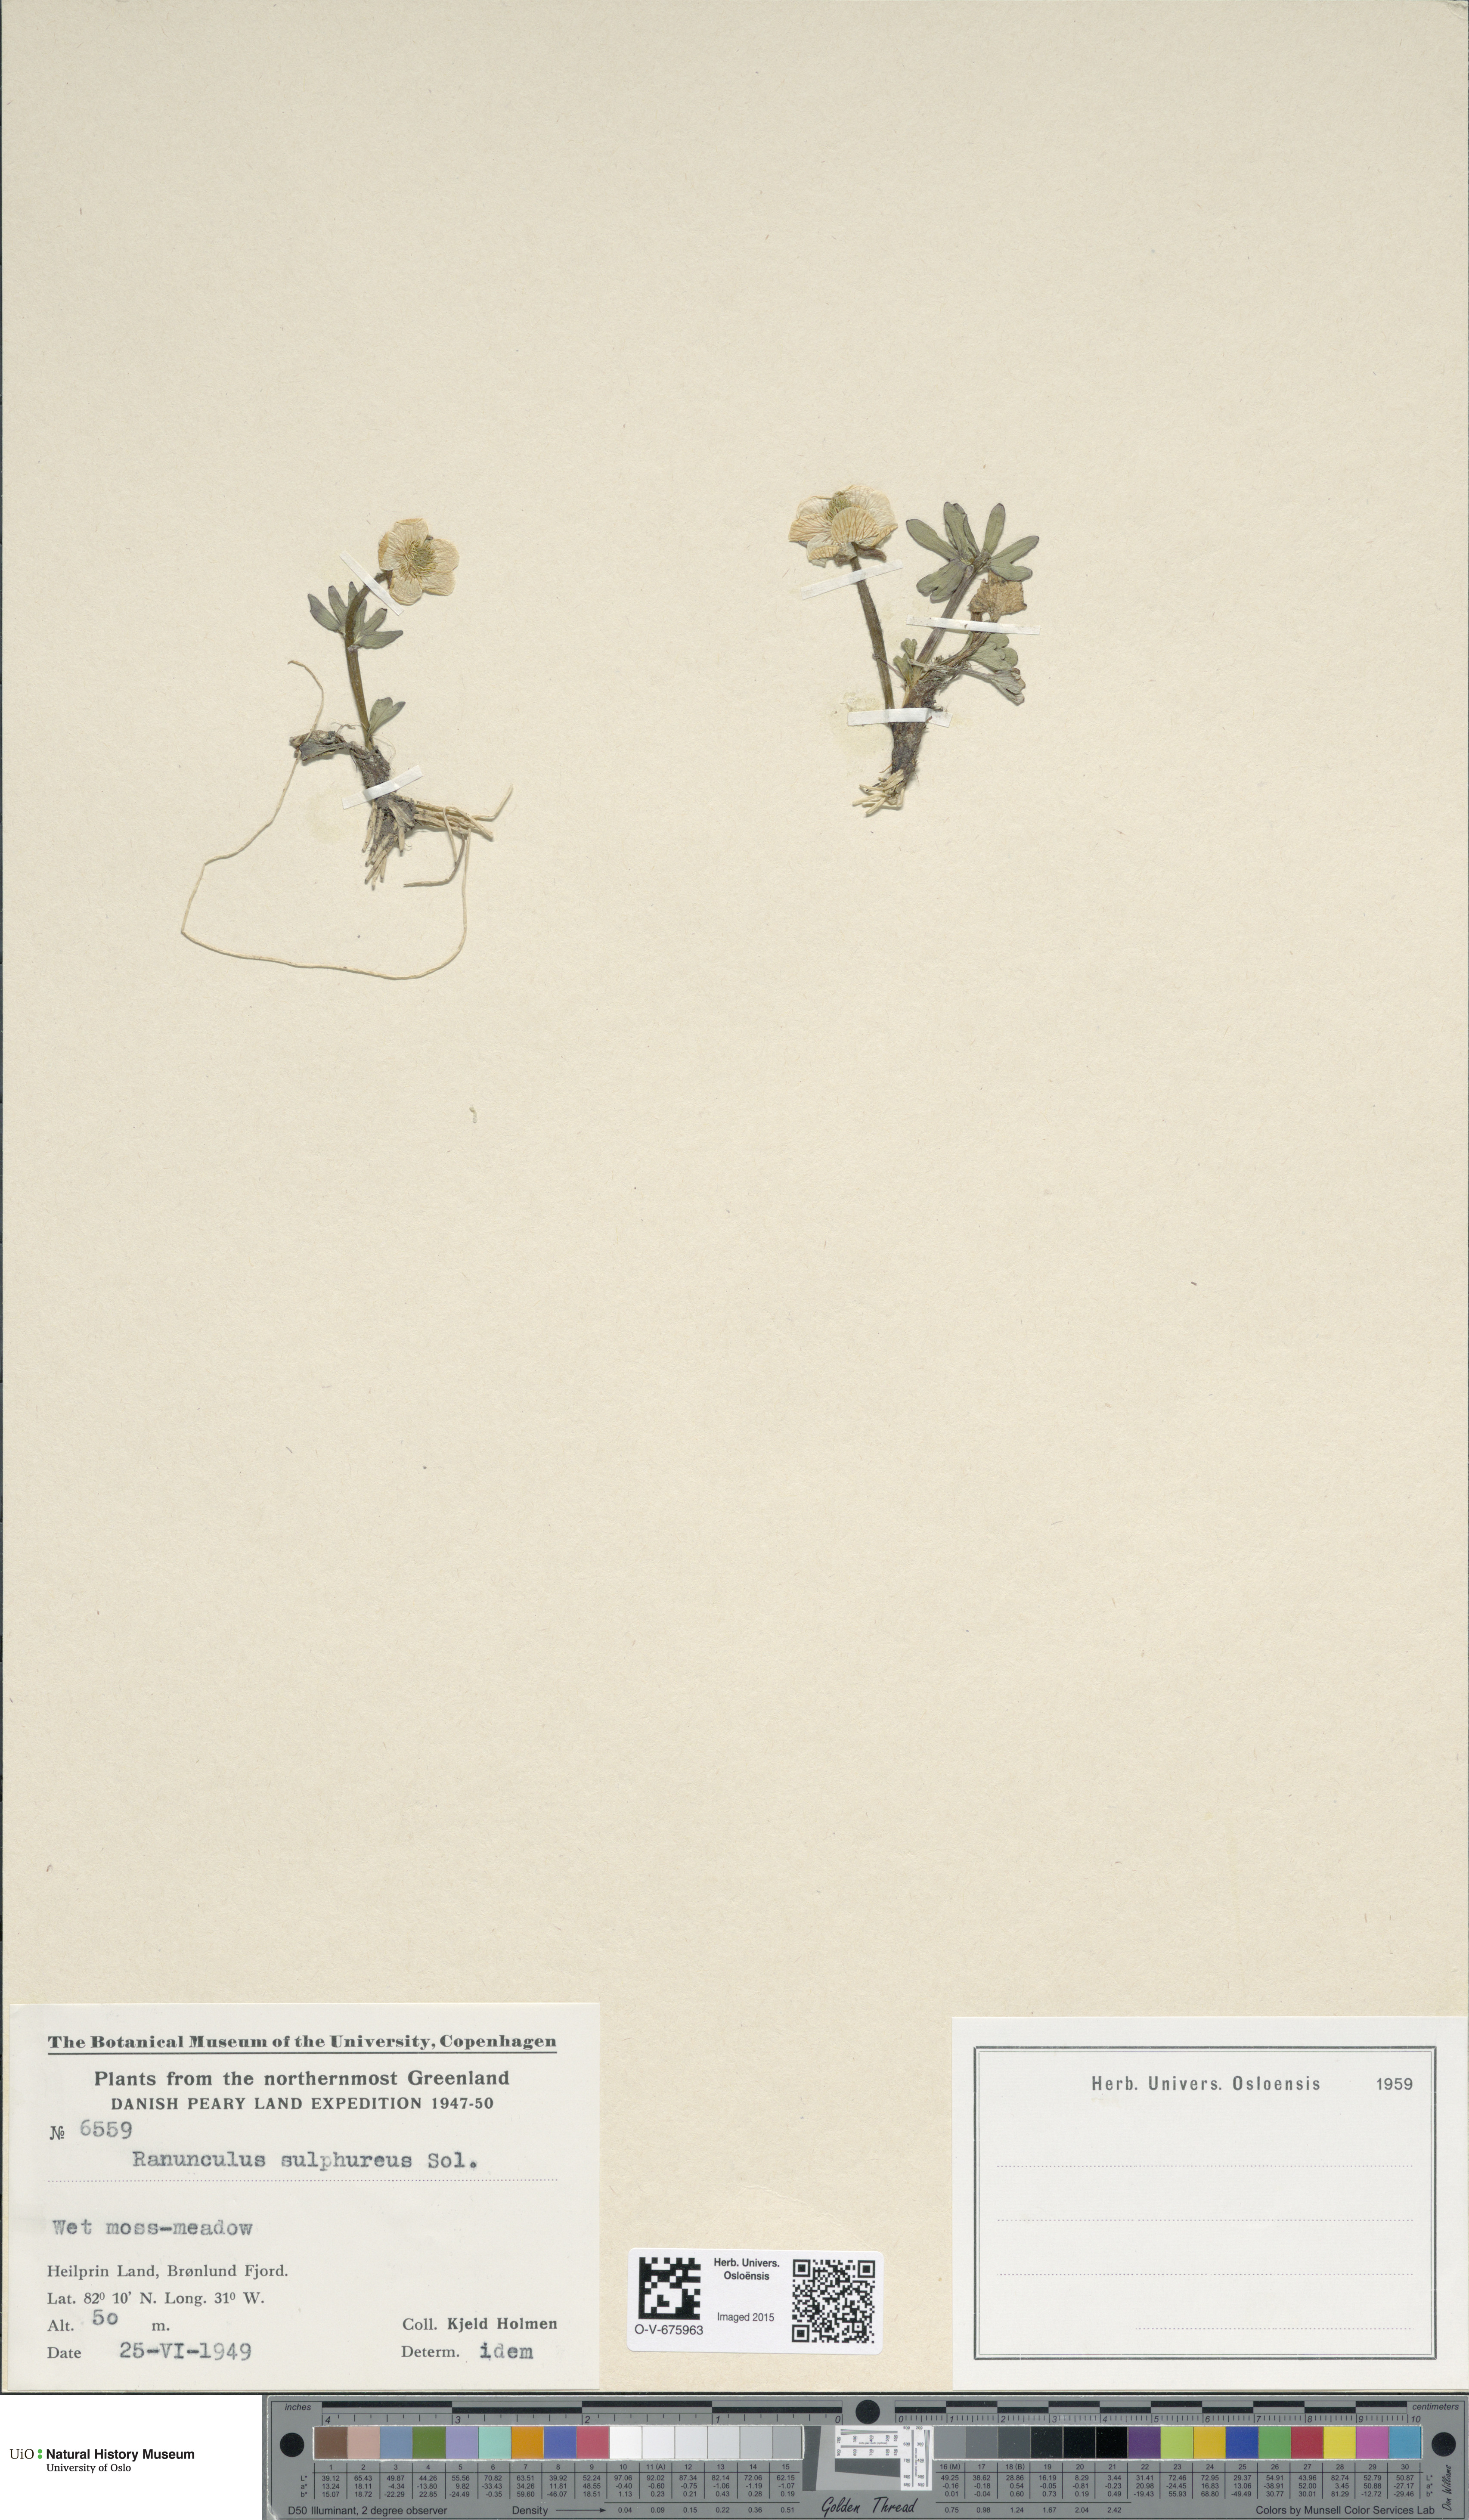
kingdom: Plantae
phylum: Tracheophyta
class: Magnoliopsida
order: Ranunculales
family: Ranunculaceae
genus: Ranunculus
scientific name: Ranunculus sulphureus
